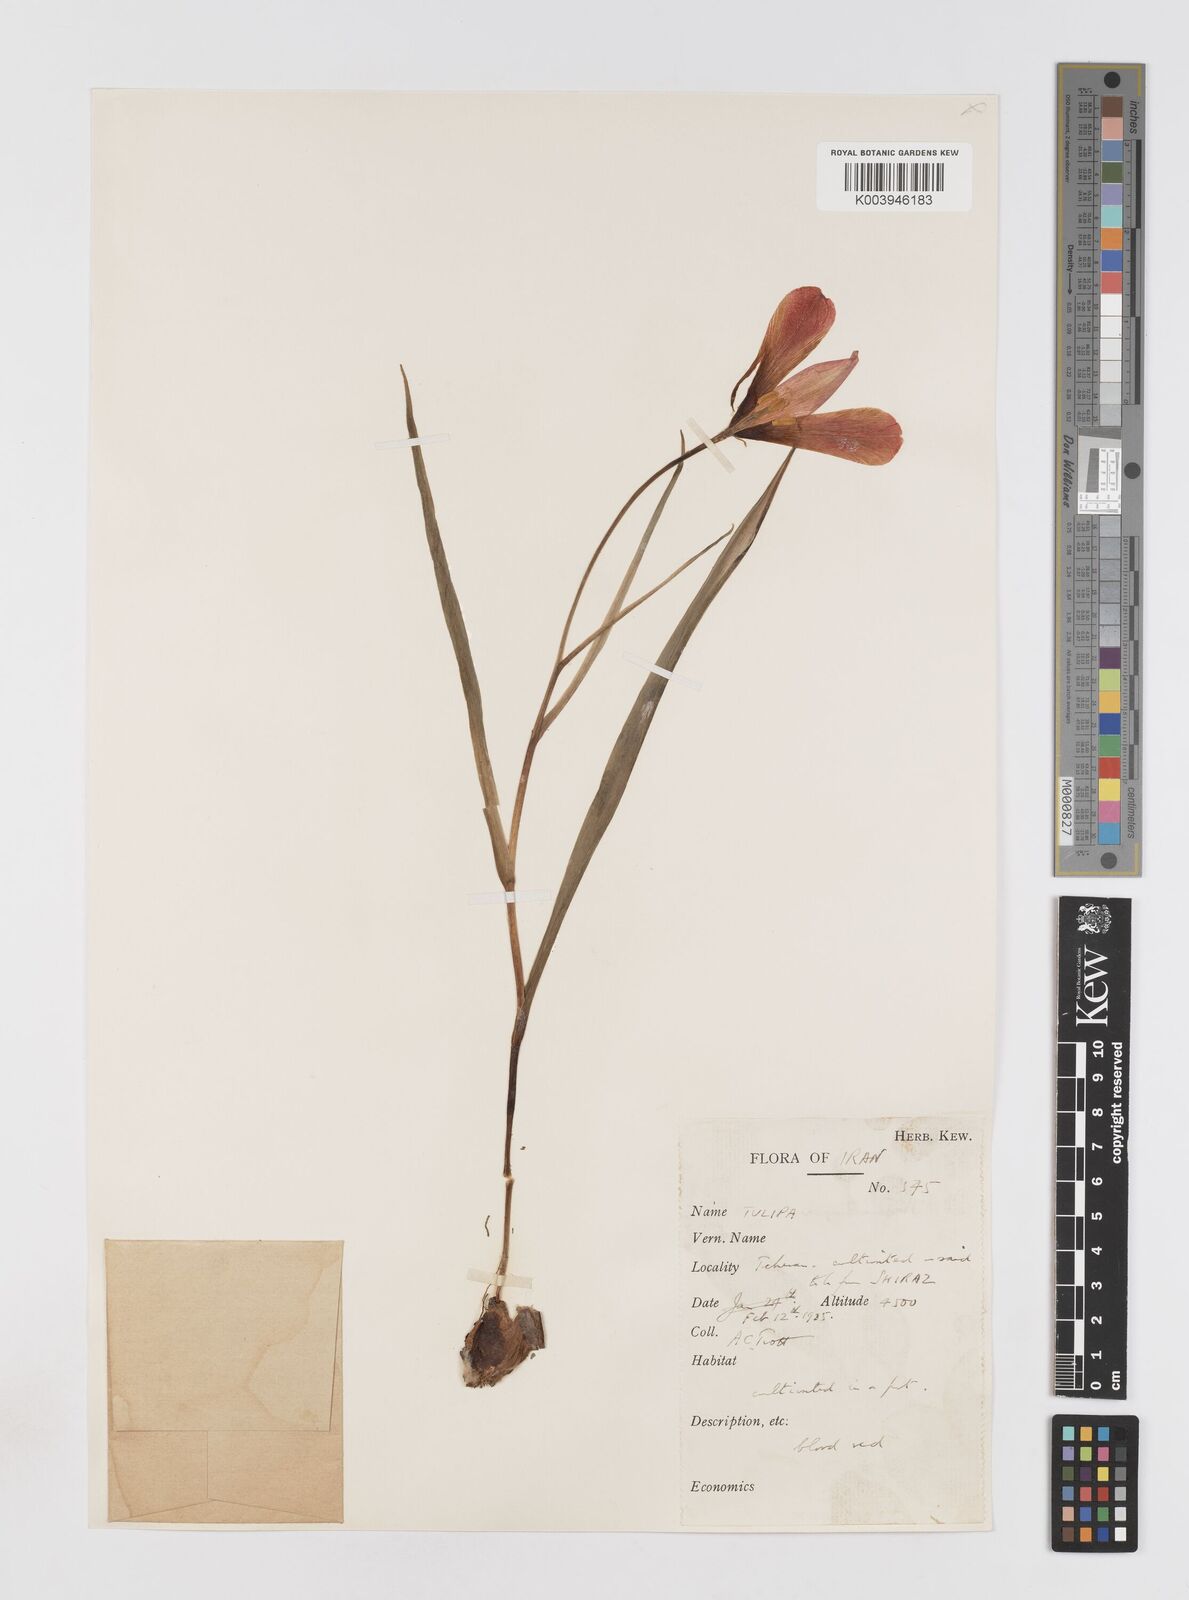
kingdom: Plantae
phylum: Tracheophyta
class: Liliopsida
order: Liliales
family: Liliaceae
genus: Tulipa
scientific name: Tulipa montana
